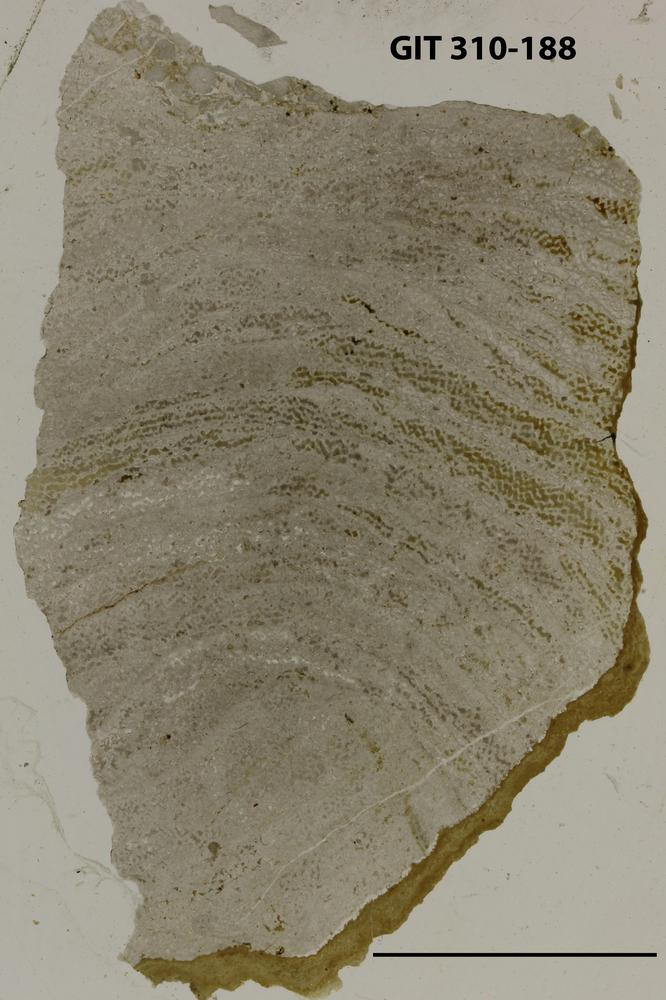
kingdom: Animalia
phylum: Porifera
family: Ecclimadictyidae
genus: Plexodictyon
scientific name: Plexodictyon
